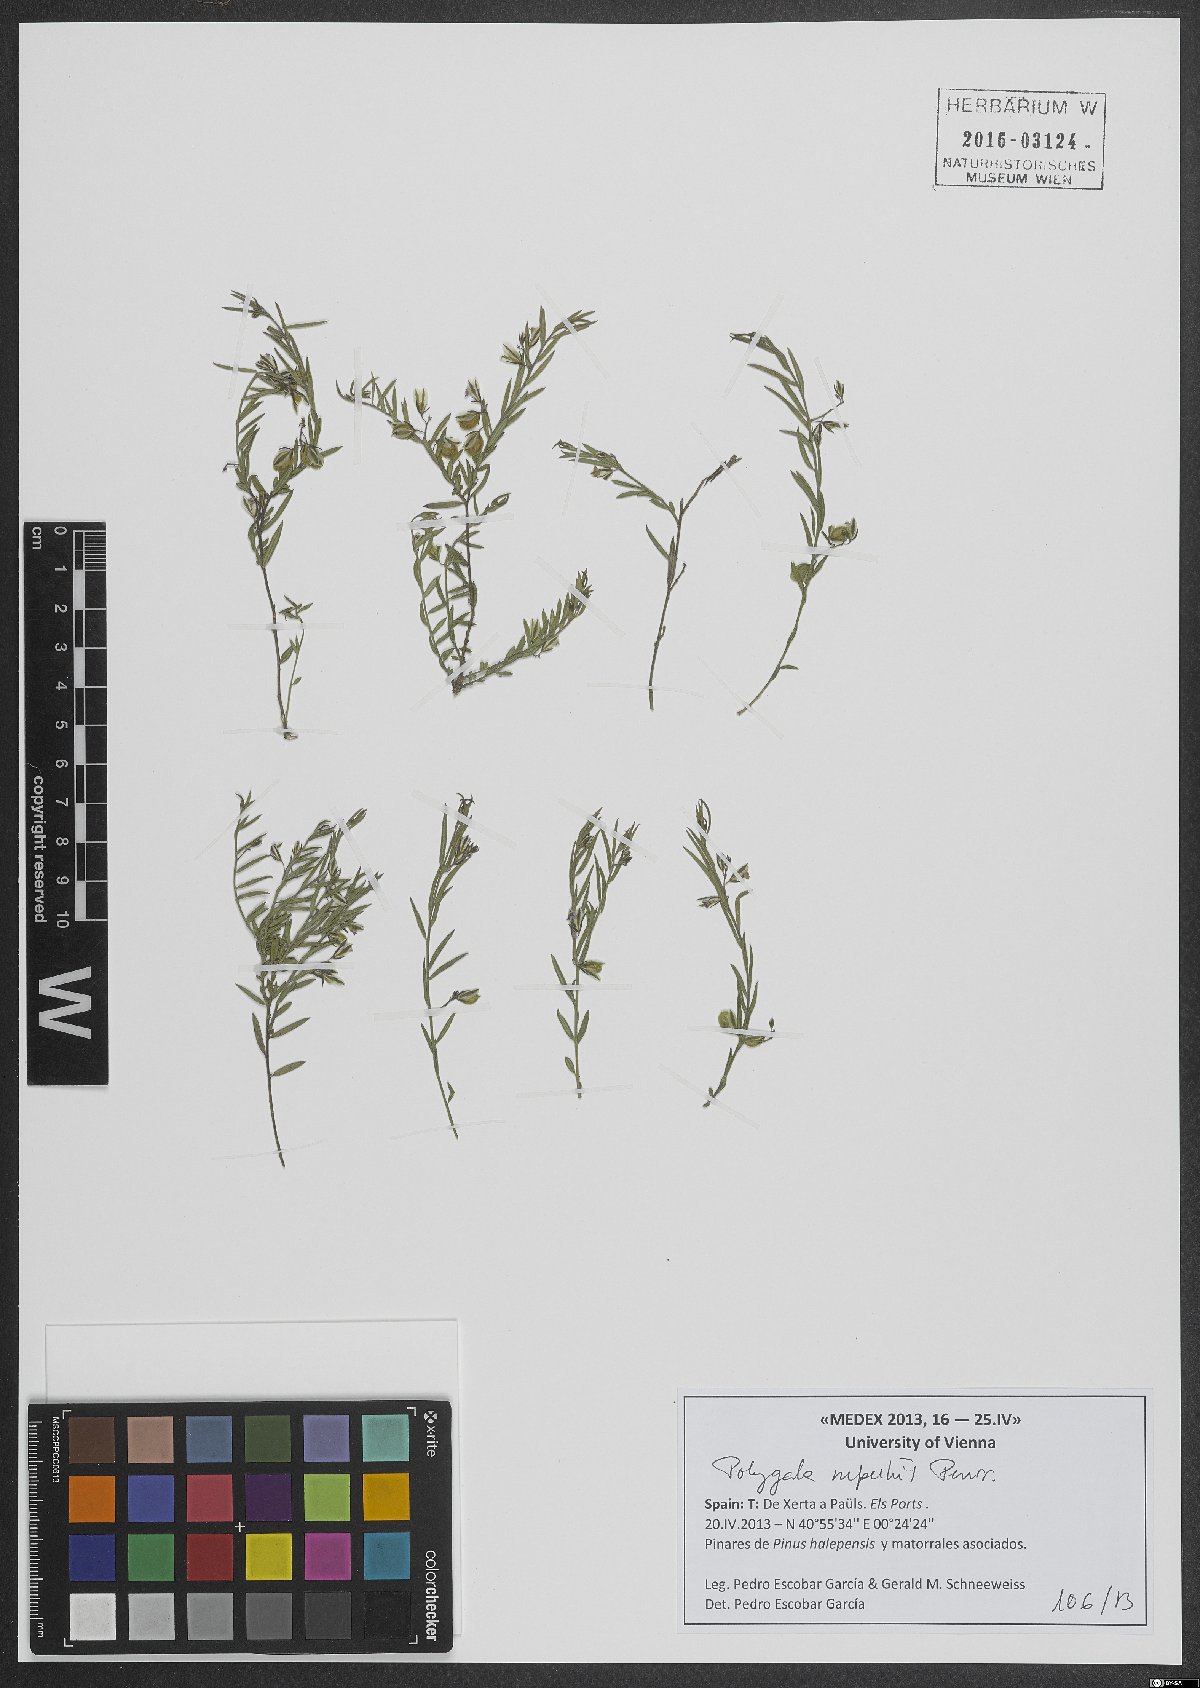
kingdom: Plantae
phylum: Tracheophyta
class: Magnoliopsida
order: Fabales
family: Polygalaceae
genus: Polygala
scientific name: Polygala rupestris
